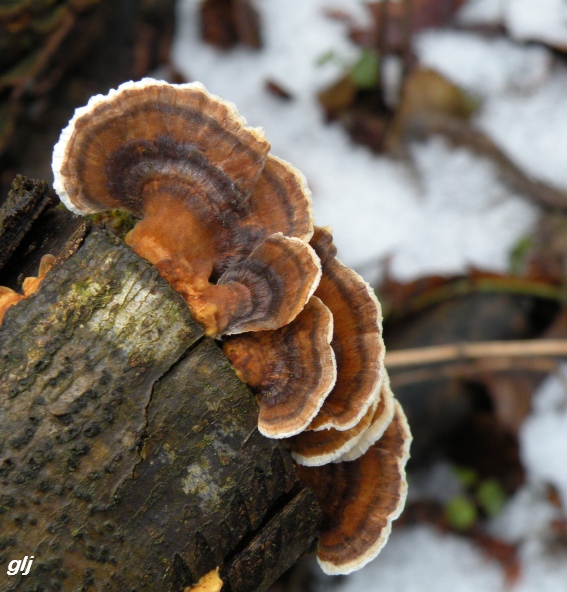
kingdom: Fungi
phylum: Basidiomycota
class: Agaricomycetes
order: Polyporales
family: Polyporaceae
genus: Trametes
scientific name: Trametes versicolor
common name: broget læderporesvamp
